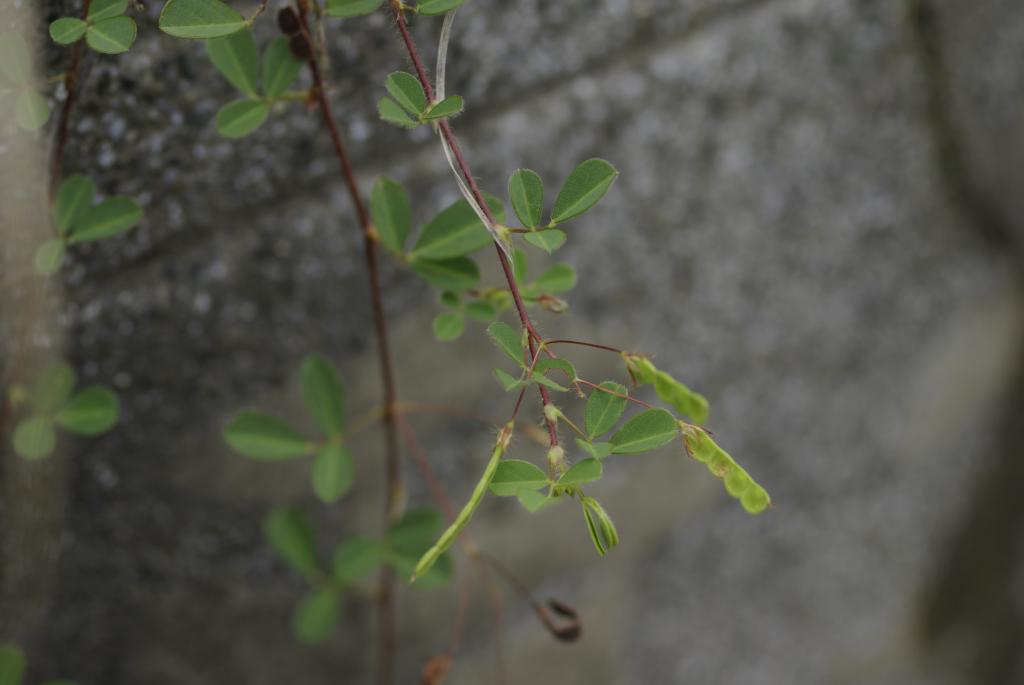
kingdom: Plantae
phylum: Tracheophyta
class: Magnoliopsida
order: Fabales
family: Fabaceae
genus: Grona
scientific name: Grona heterophylla
